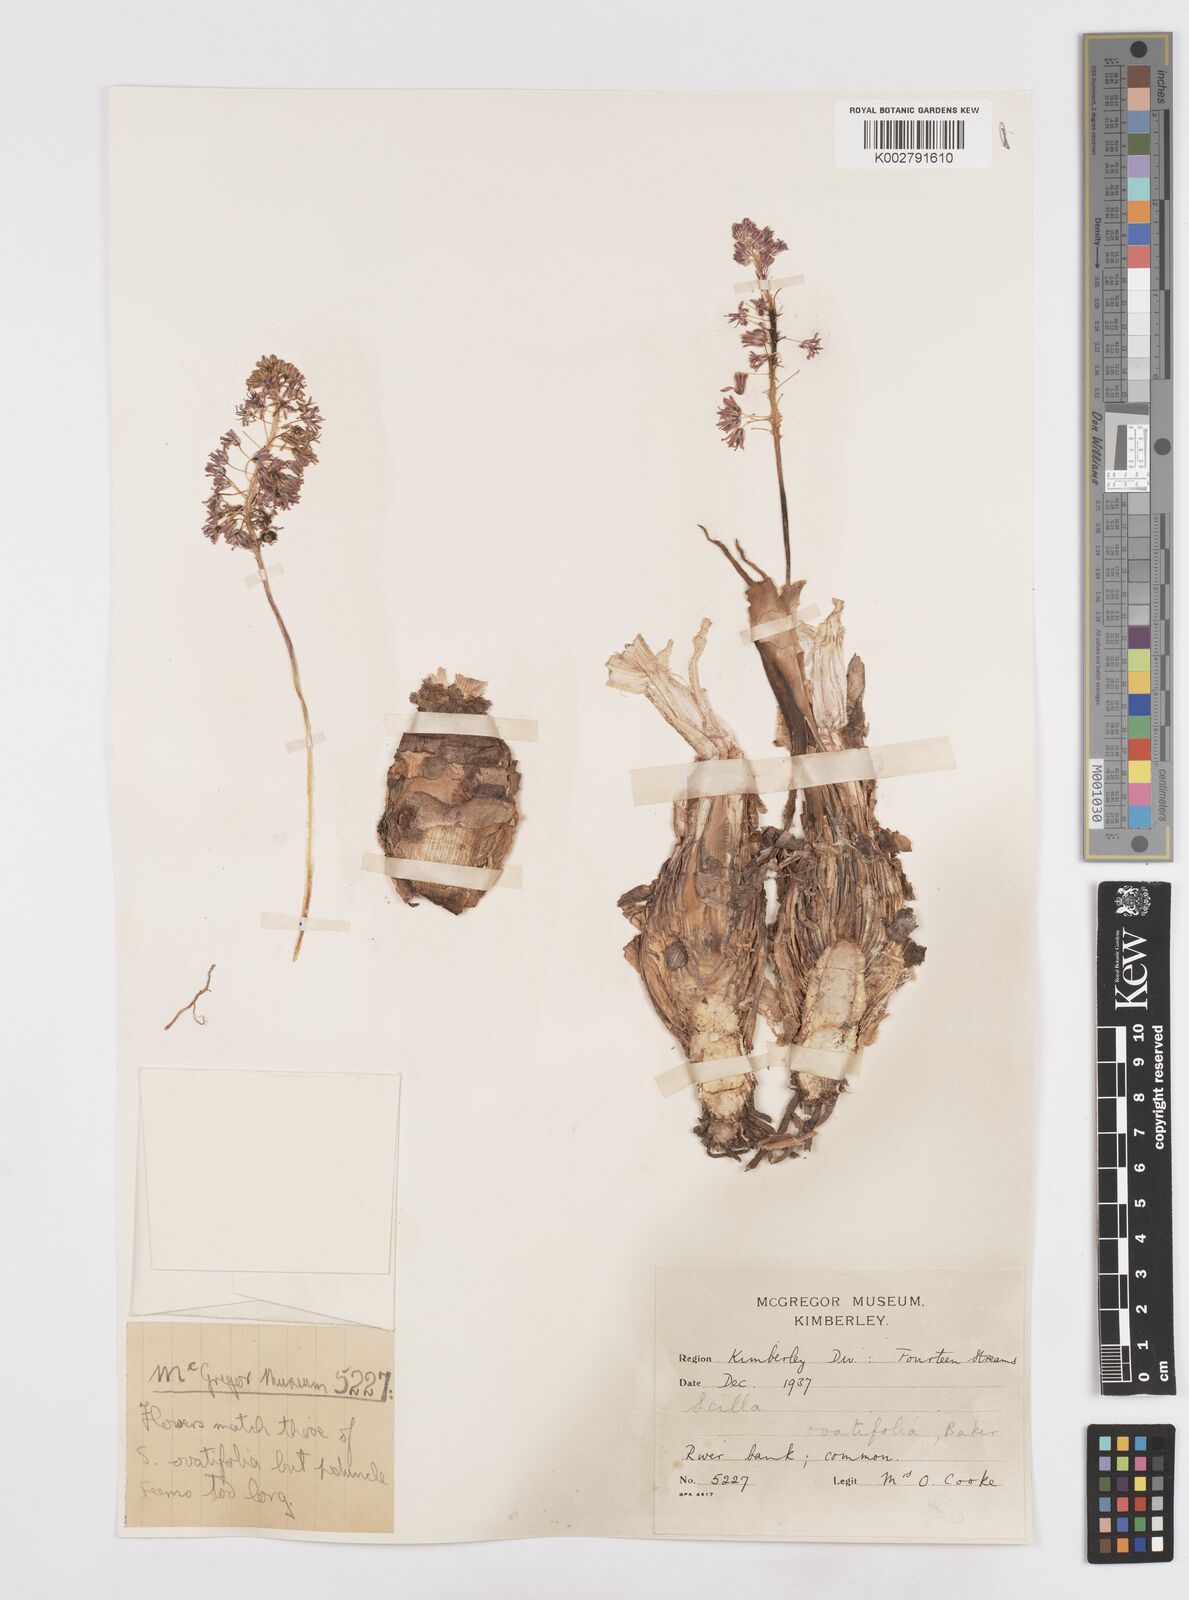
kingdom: Plantae
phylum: Tracheophyta
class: Liliopsida
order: Asparagales
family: Asparagaceae
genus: Scilla
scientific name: Scilla
